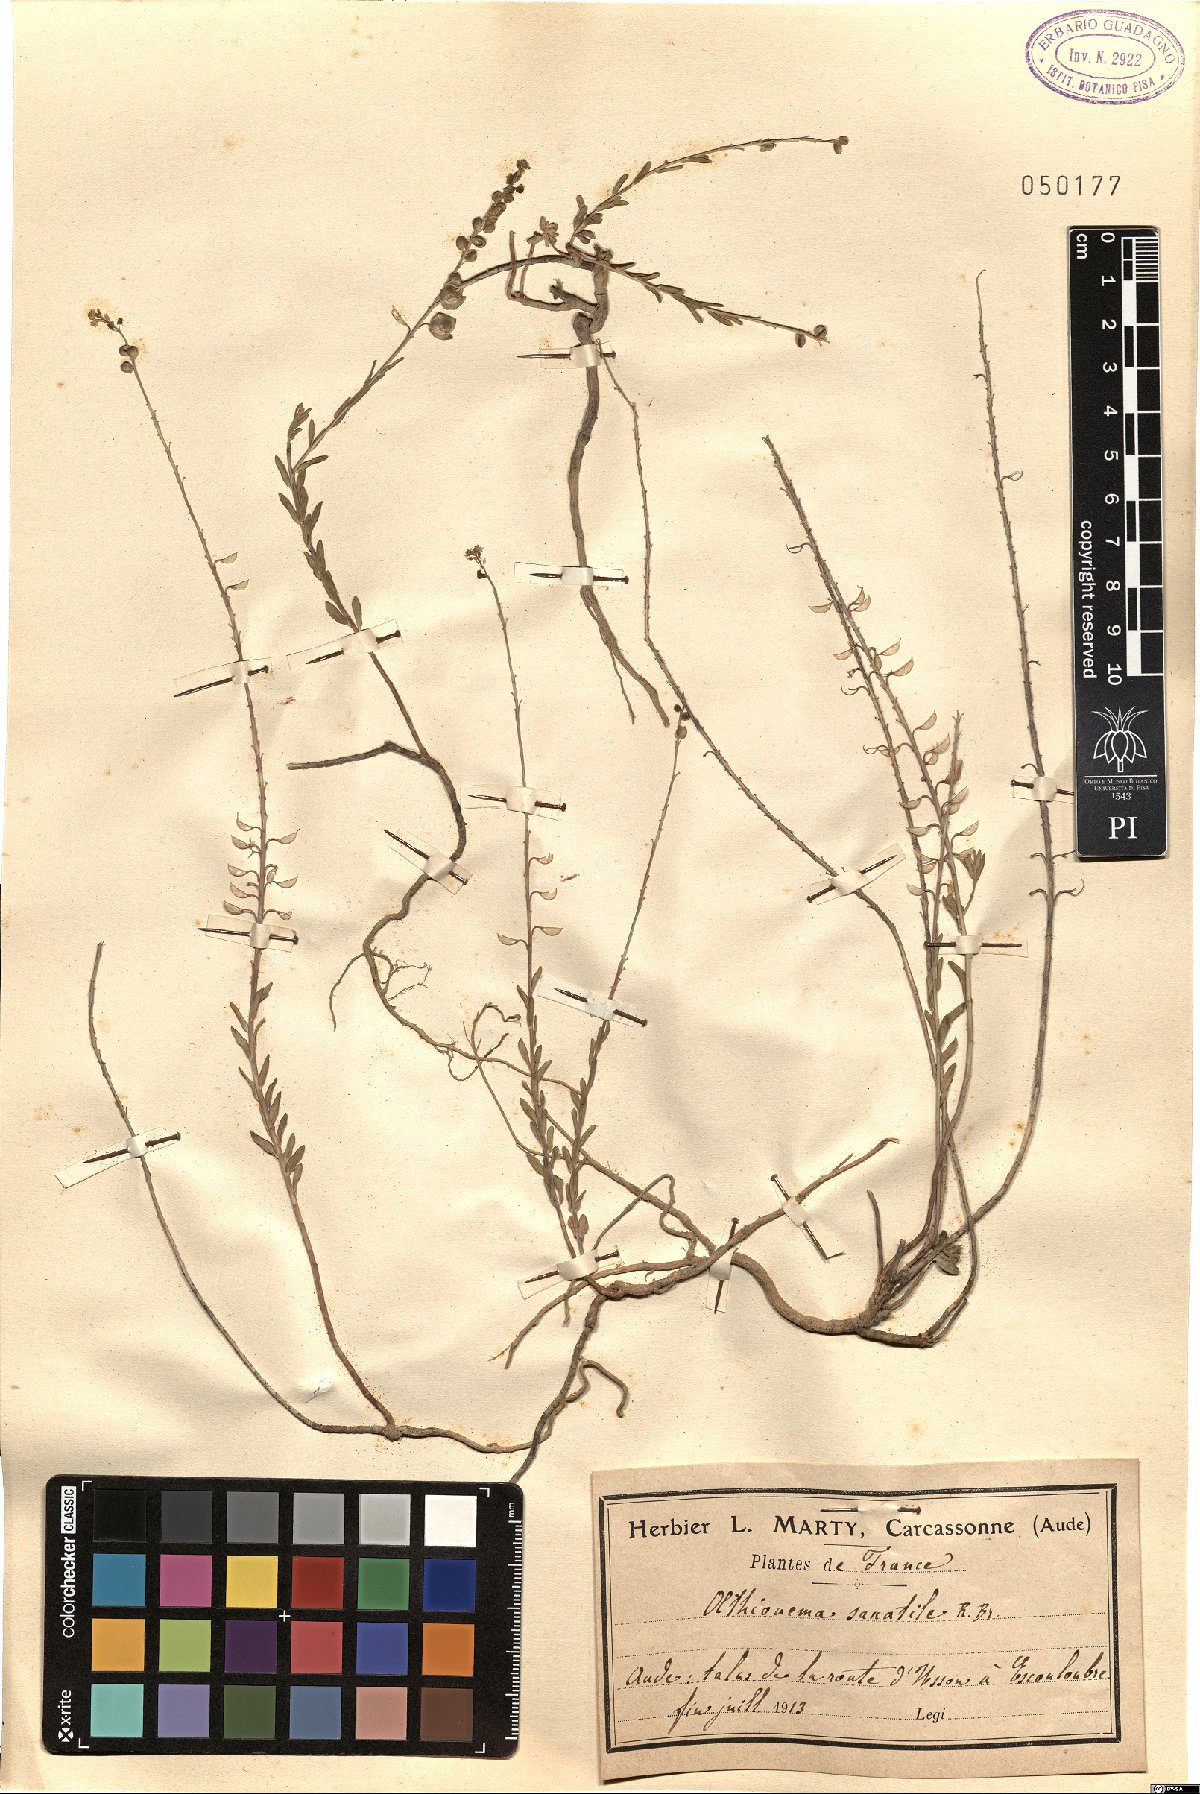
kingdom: Plantae
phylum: Tracheophyta
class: Magnoliopsida
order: Brassicales
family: Brassicaceae
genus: Aethionema
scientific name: Aethionema saxatile
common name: Burnt candytuft
